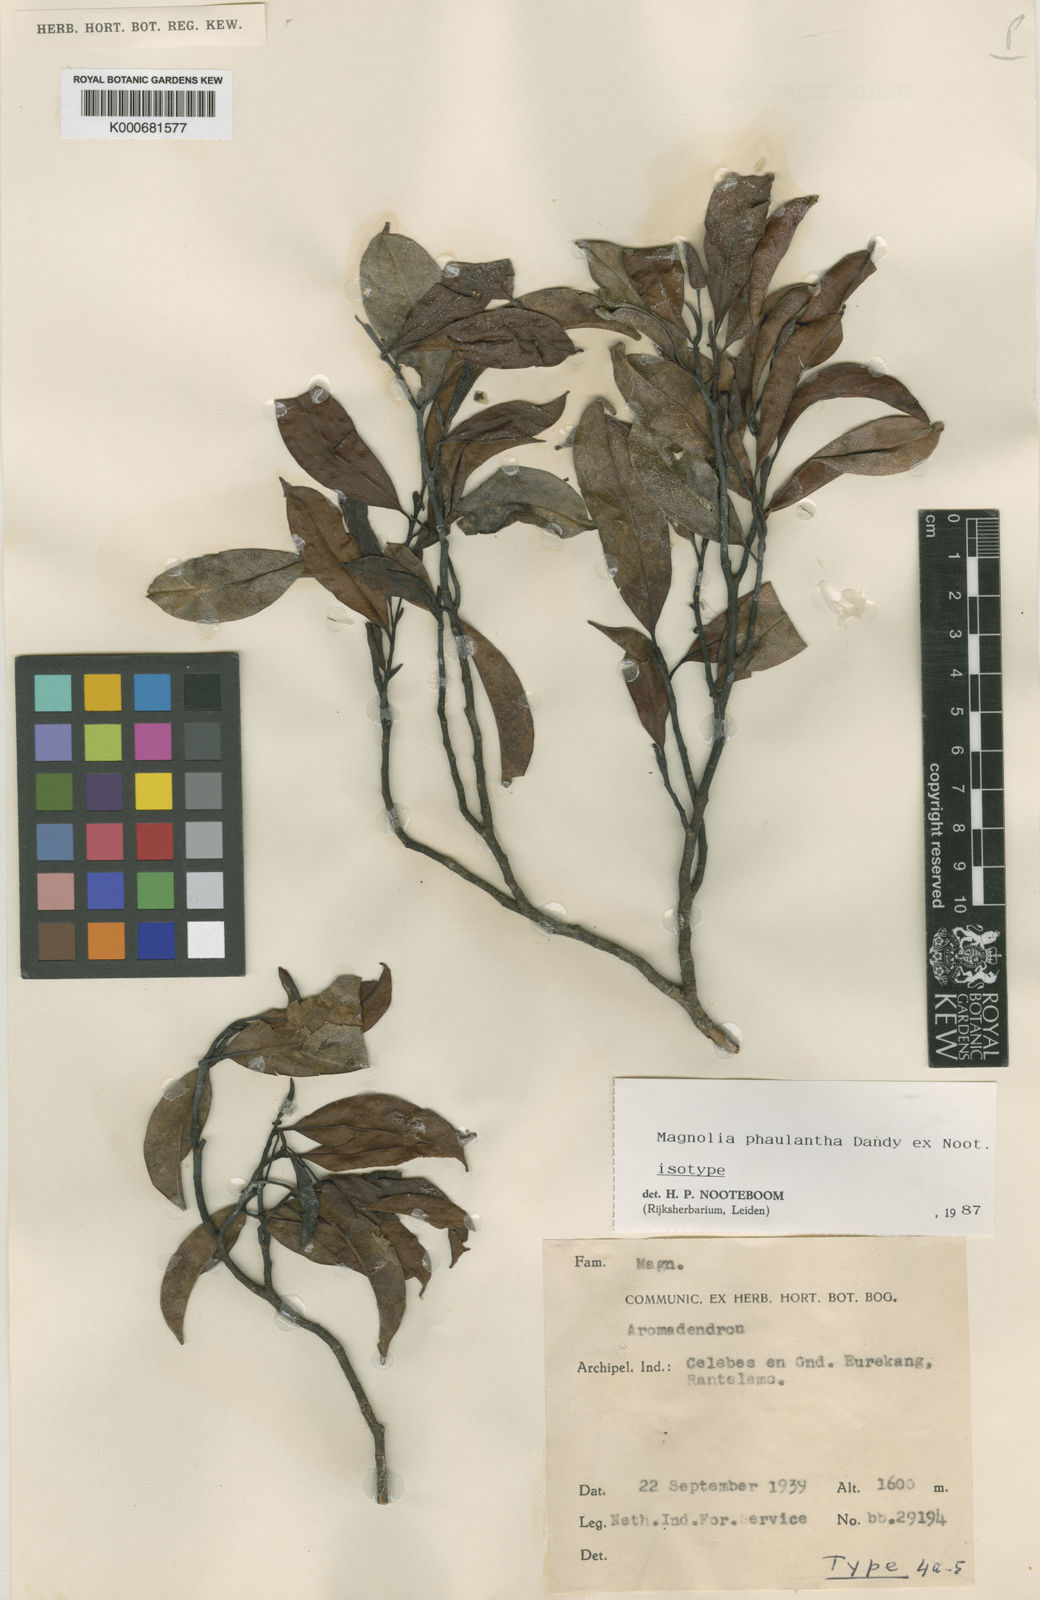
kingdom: Plantae
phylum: Tracheophyta
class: Magnoliopsida
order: Magnoliales
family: Magnoliaceae
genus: Magnolia
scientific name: Magnolia carsonii
